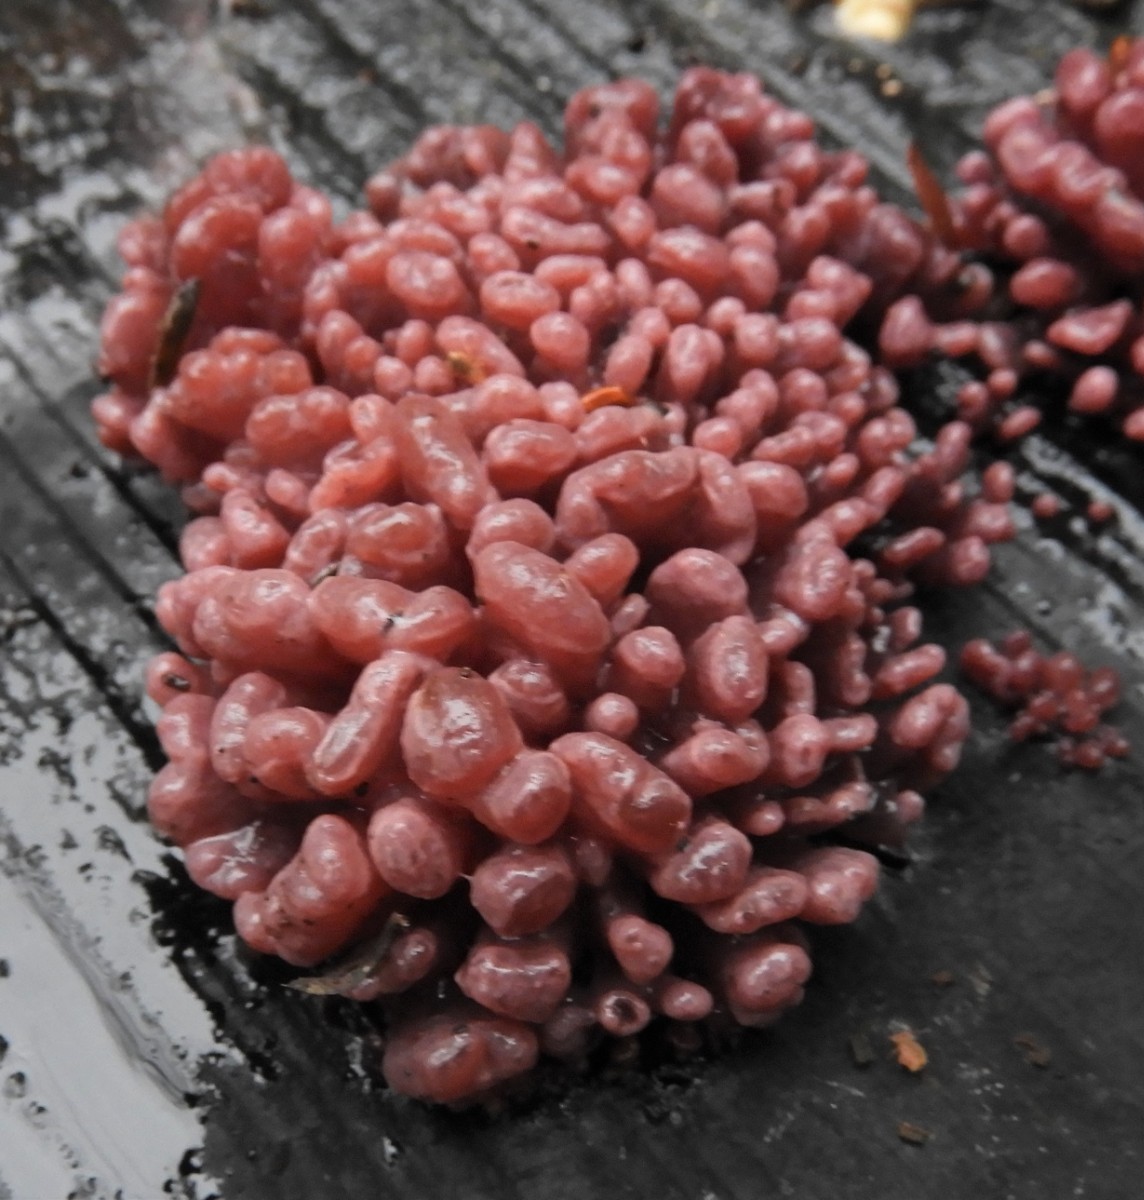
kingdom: Fungi
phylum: Ascomycota
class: Leotiomycetes
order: Helotiales
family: Gelatinodiscaceae
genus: Ascocoryne
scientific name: Ascocoryne sarcoides
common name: rødlilla sejskive
